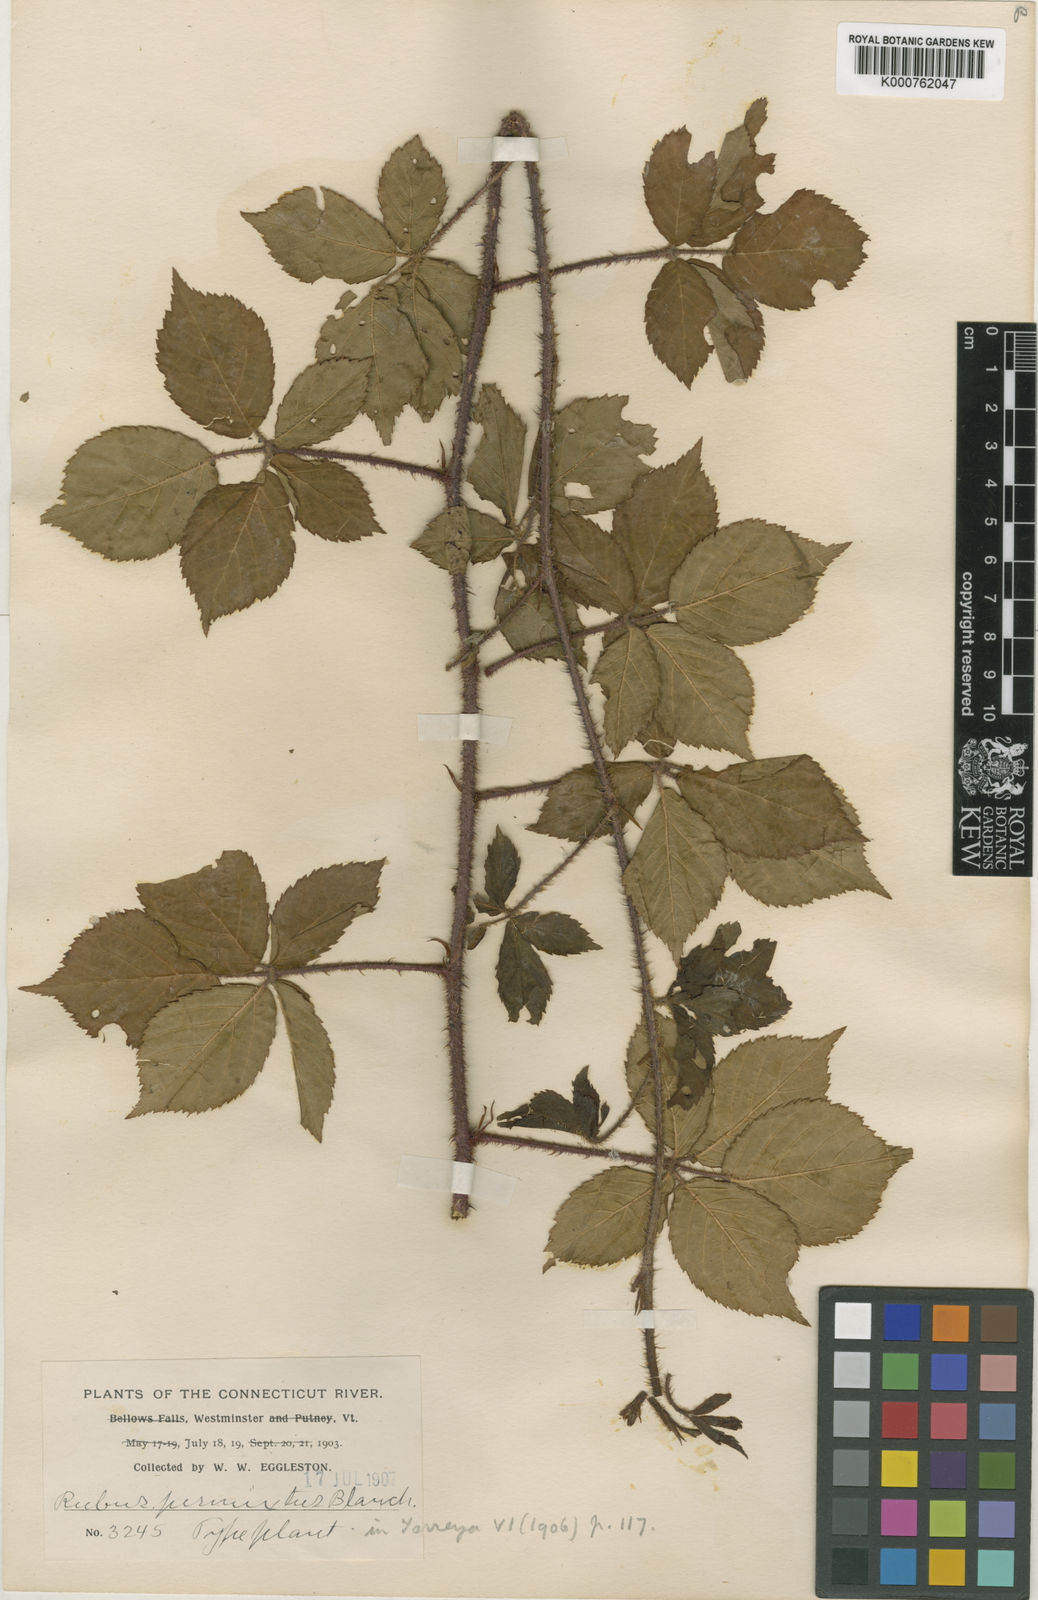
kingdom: Plantae
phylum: Tracheophyta
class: Magnoliopsida
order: Rosales
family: Rosaceae
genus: Rubus
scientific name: Rubus permixtus
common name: Thicket dewberry
